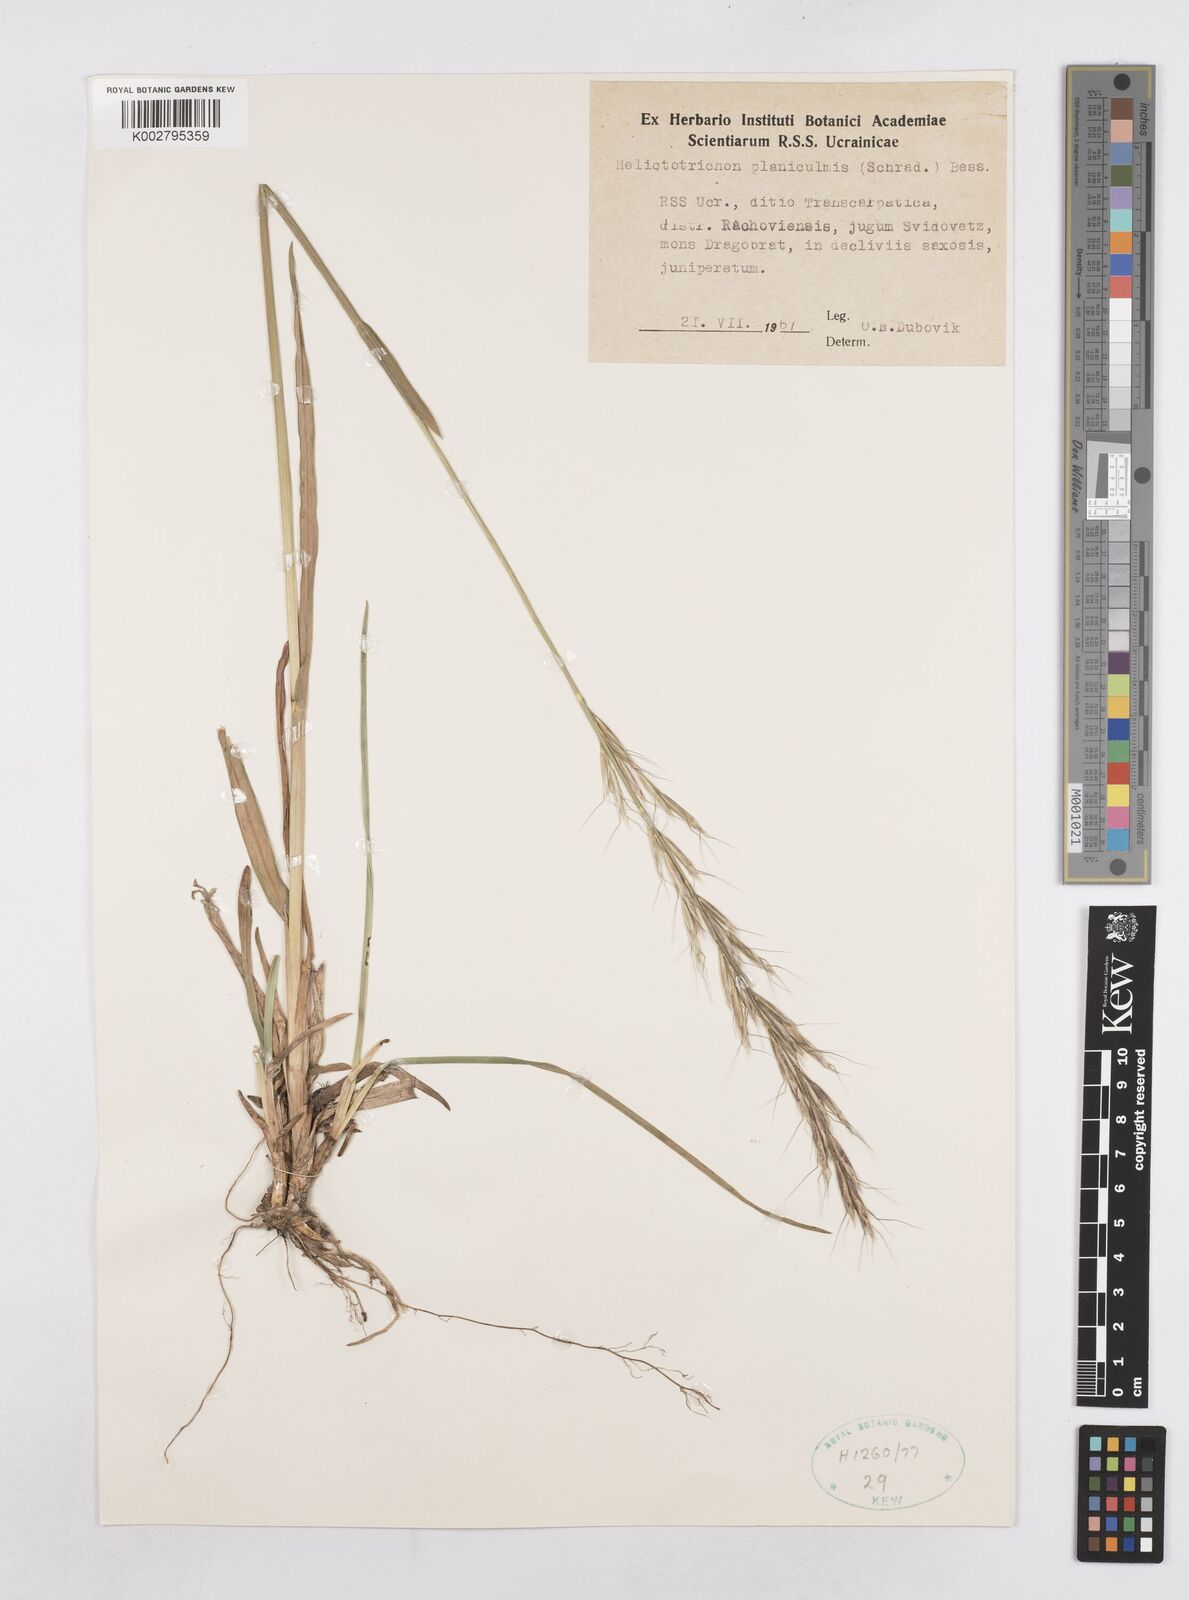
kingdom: Plantae
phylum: Tracheophyta
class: Liliopsida
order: Poales
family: Poaceae
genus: Helictochloa
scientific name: Helictochloa planiculmis
